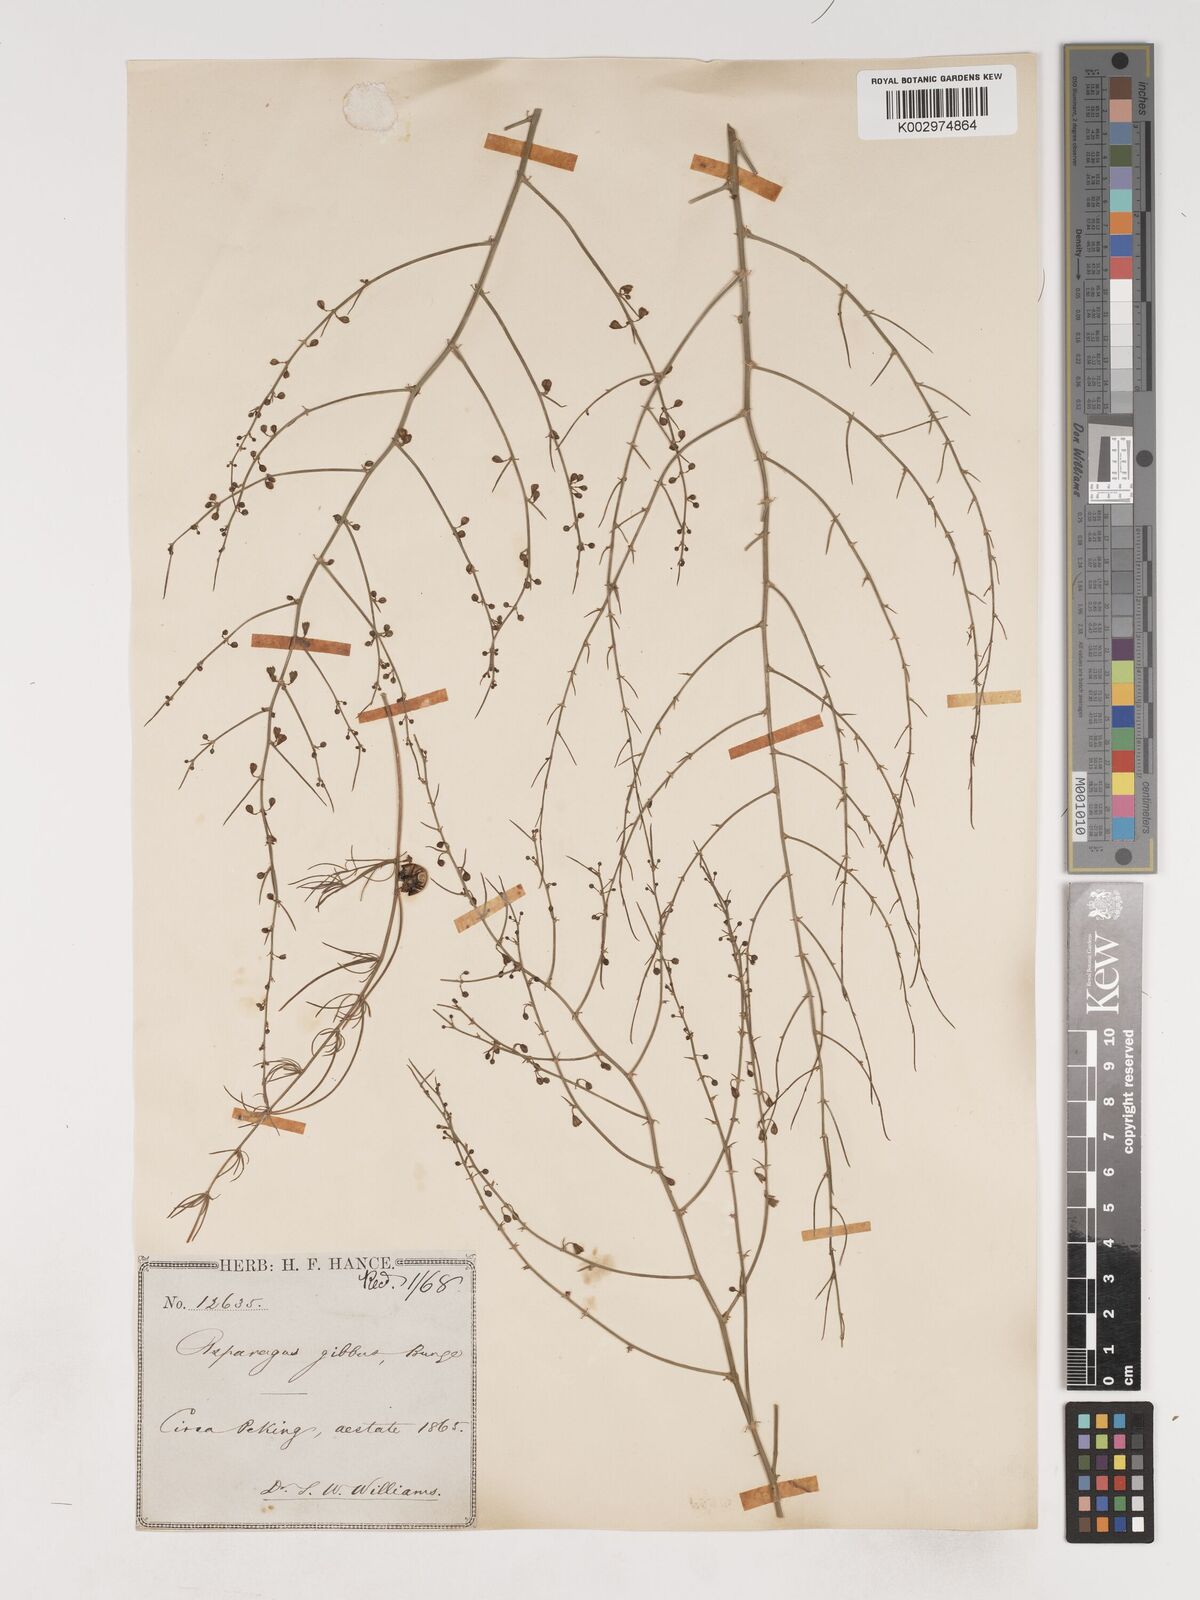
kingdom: Plantae
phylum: Tracheophyta
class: Liliopsida
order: Asparagales
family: Asparagaceae
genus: Asparagus
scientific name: Asparagus dauricus
